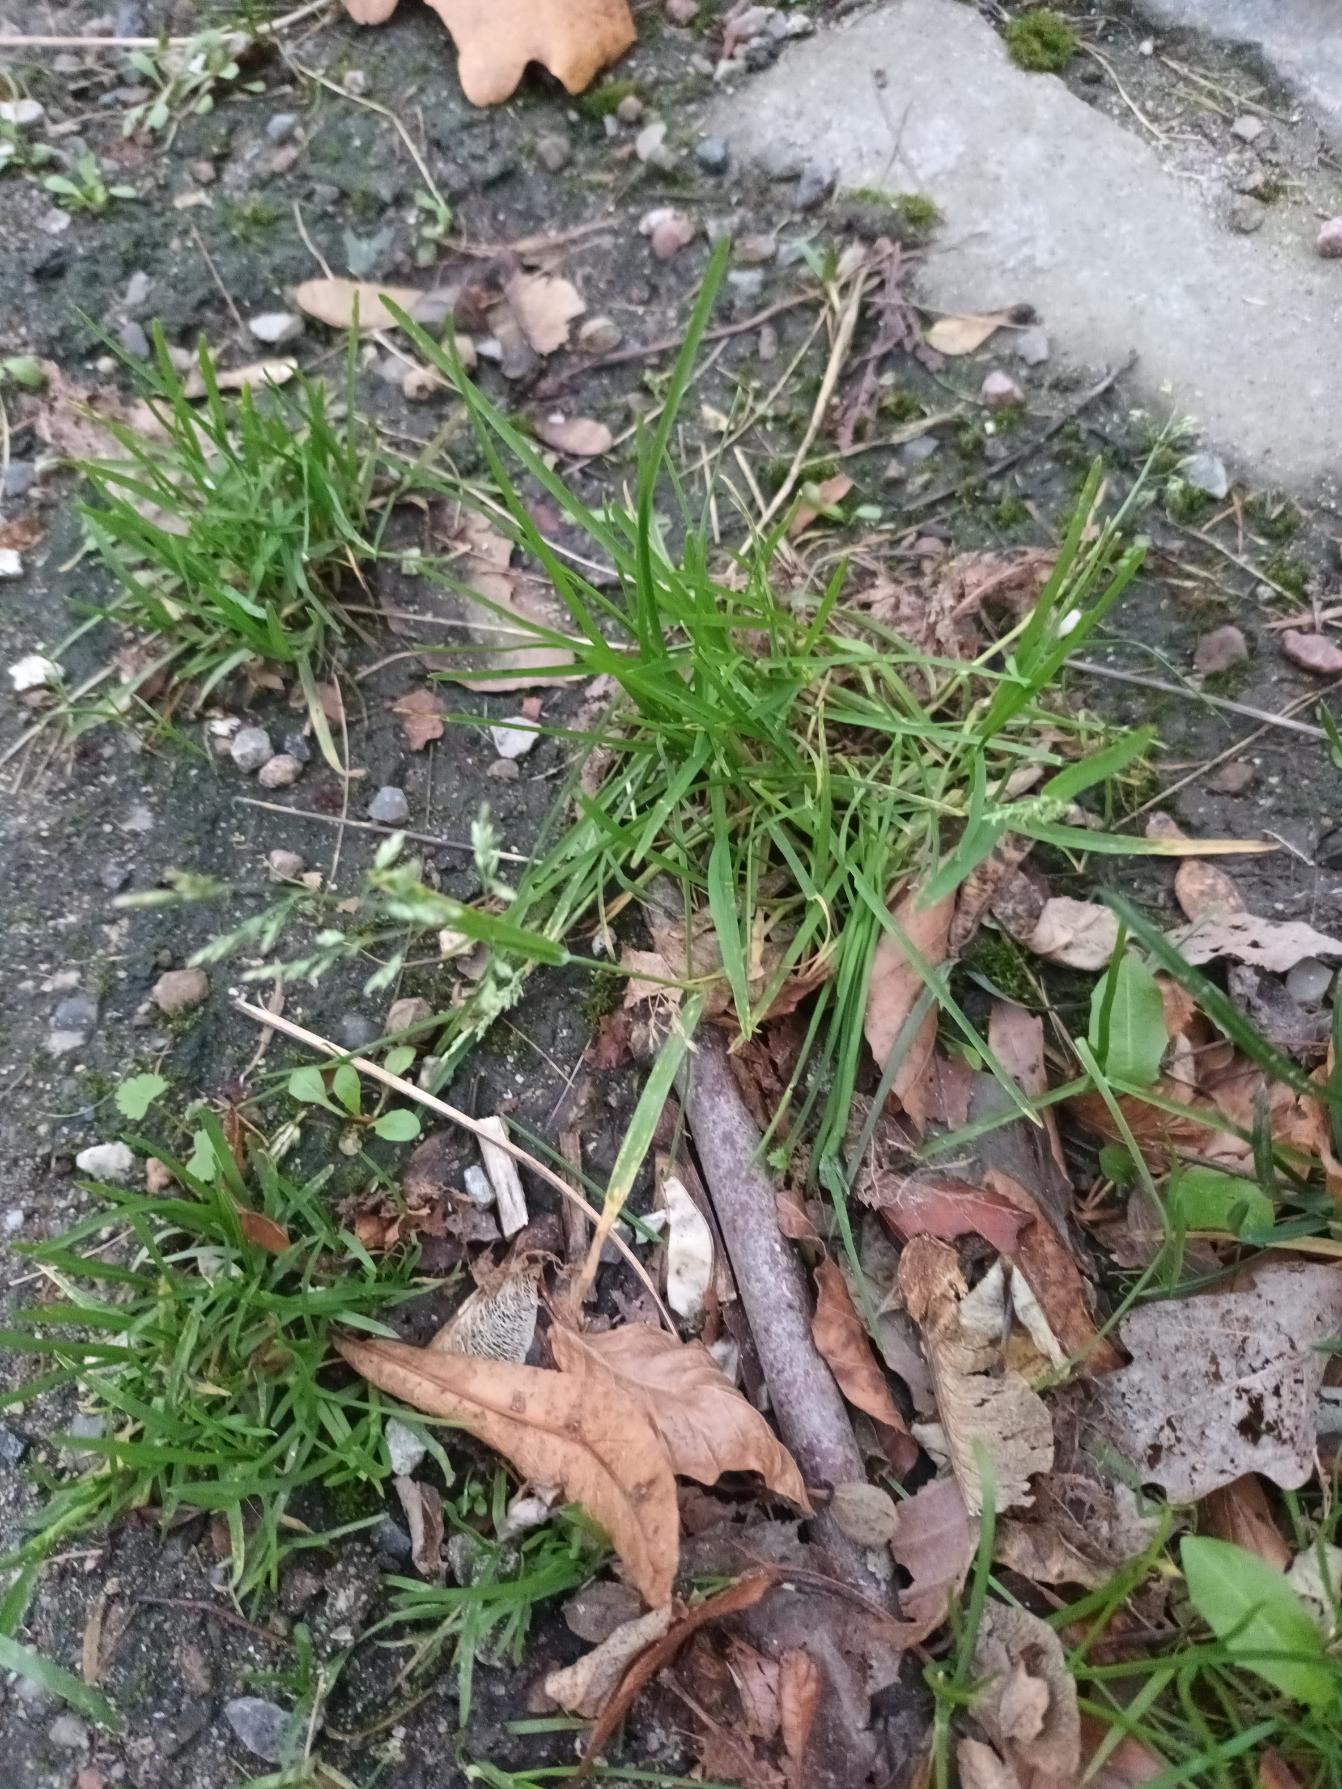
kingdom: Plantae
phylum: Tracheophyta
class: Liliopsida
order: Poales
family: Poaceae
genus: Poa
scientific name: Poa annua
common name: Enårig rapgræs
